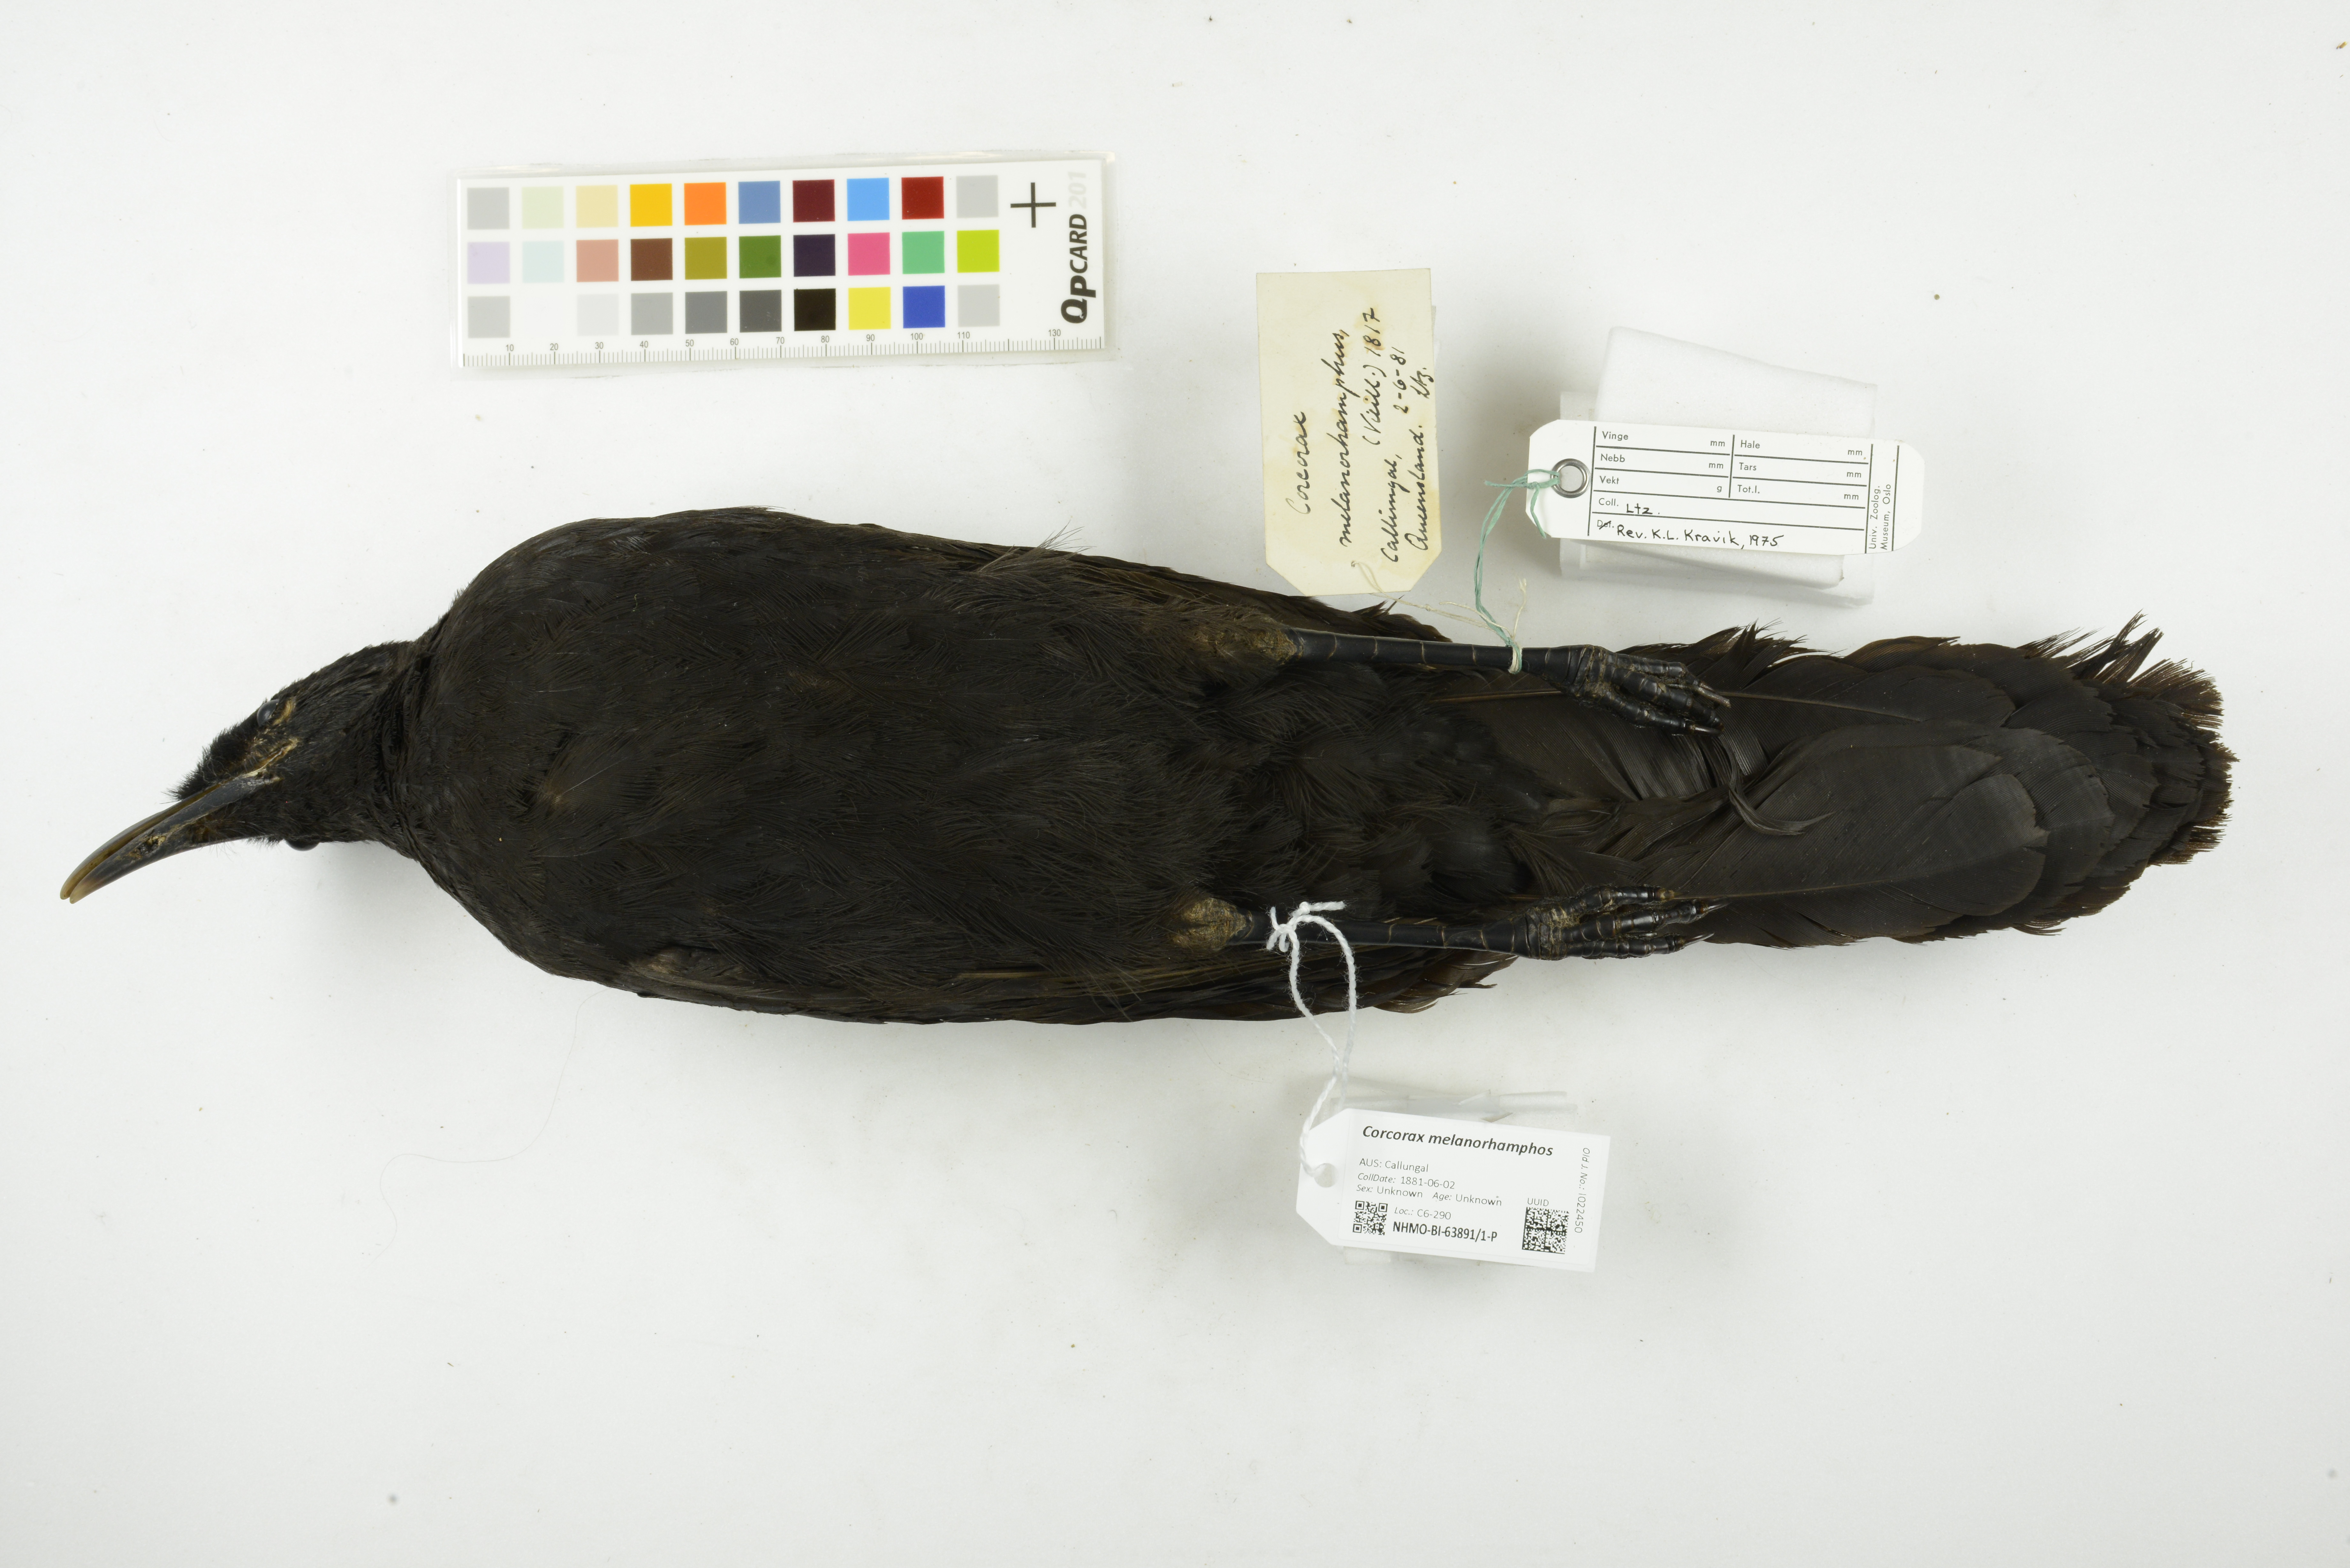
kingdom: Animalia
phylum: Chordata
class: Aves
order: Passeriformes
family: Corcoracidae
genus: Corcorax
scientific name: Corcorax melanoramphos
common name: White-winged chough
